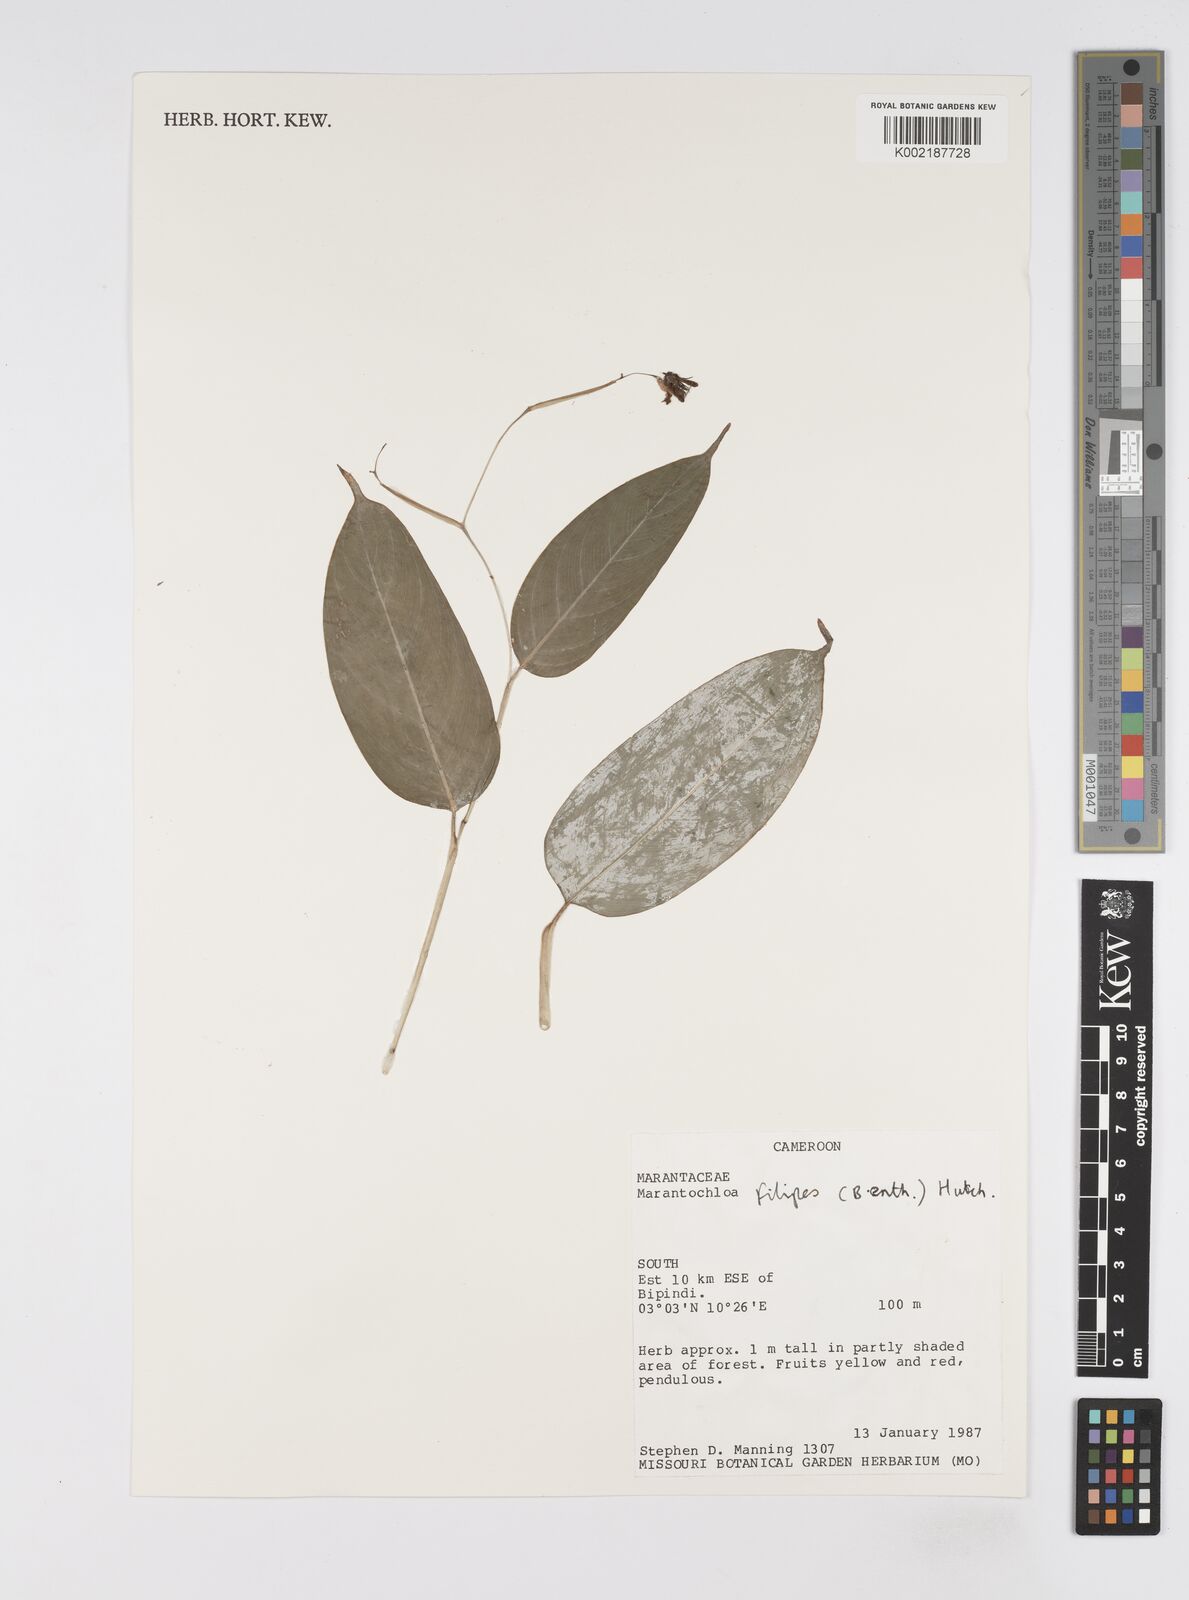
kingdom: Plantae
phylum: Tracheophyta
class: Liliopsida
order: Zingiberales
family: Marantaceae
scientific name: Marantaceae
